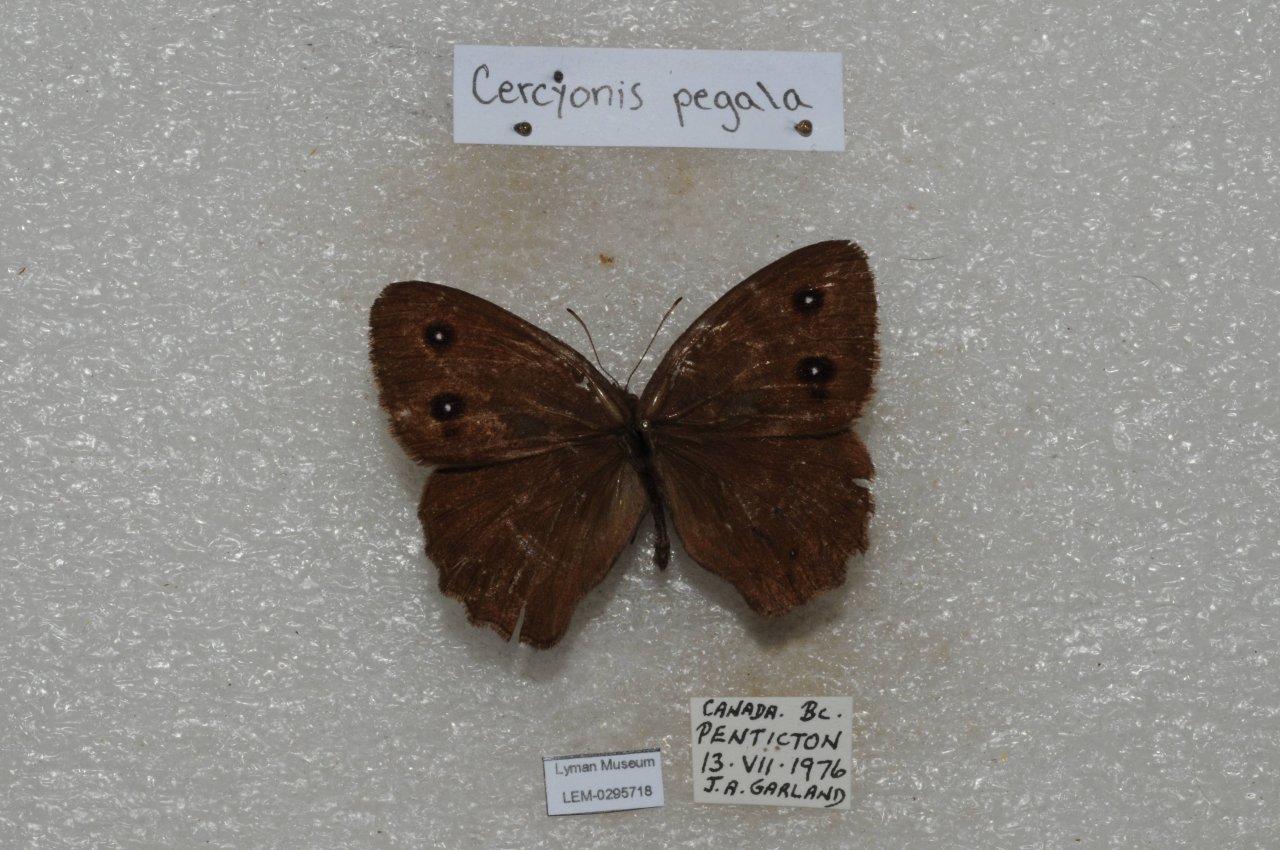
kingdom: Animalia
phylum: Arthropoda
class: Insecta
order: Lepidoptera
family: Nymphalidae
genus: Cercyonis
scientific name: Cercyonis pegala
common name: Common Wood-Nymph
